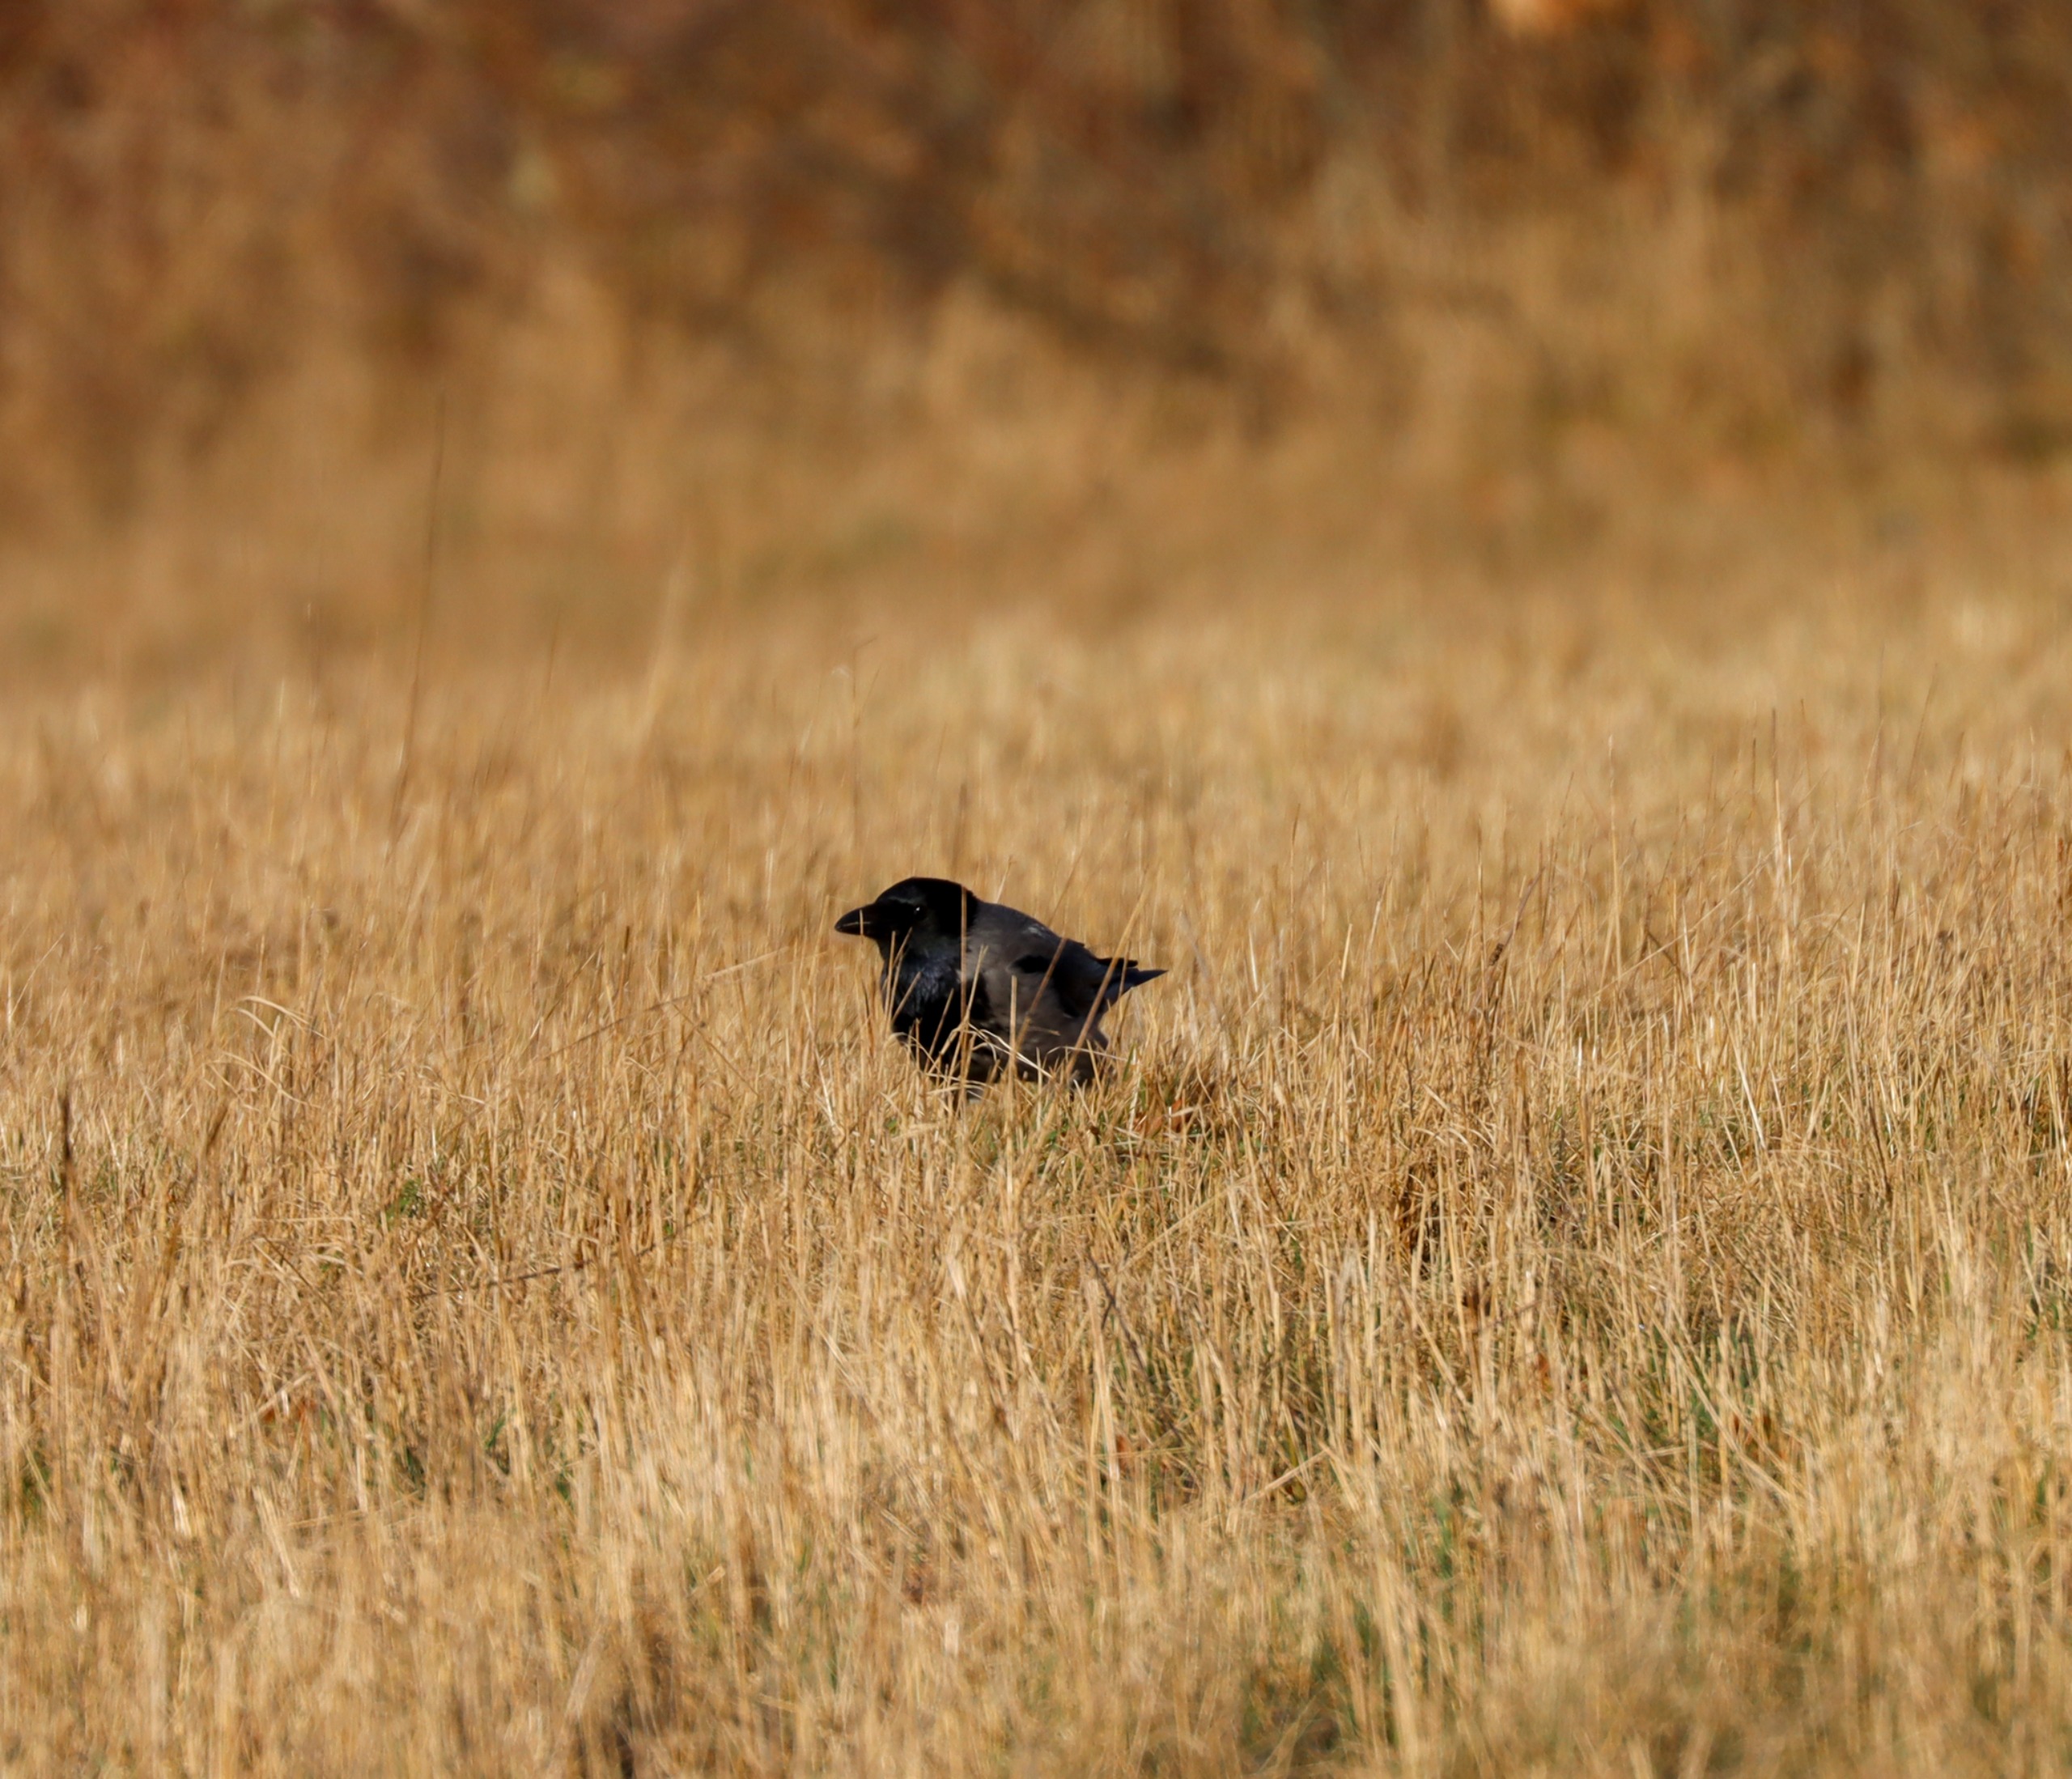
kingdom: Animalia
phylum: Chordata
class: Aves
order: Passeriformes
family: Corvidae
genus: Corvus
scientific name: Corvus cornix
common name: Gråkrage
